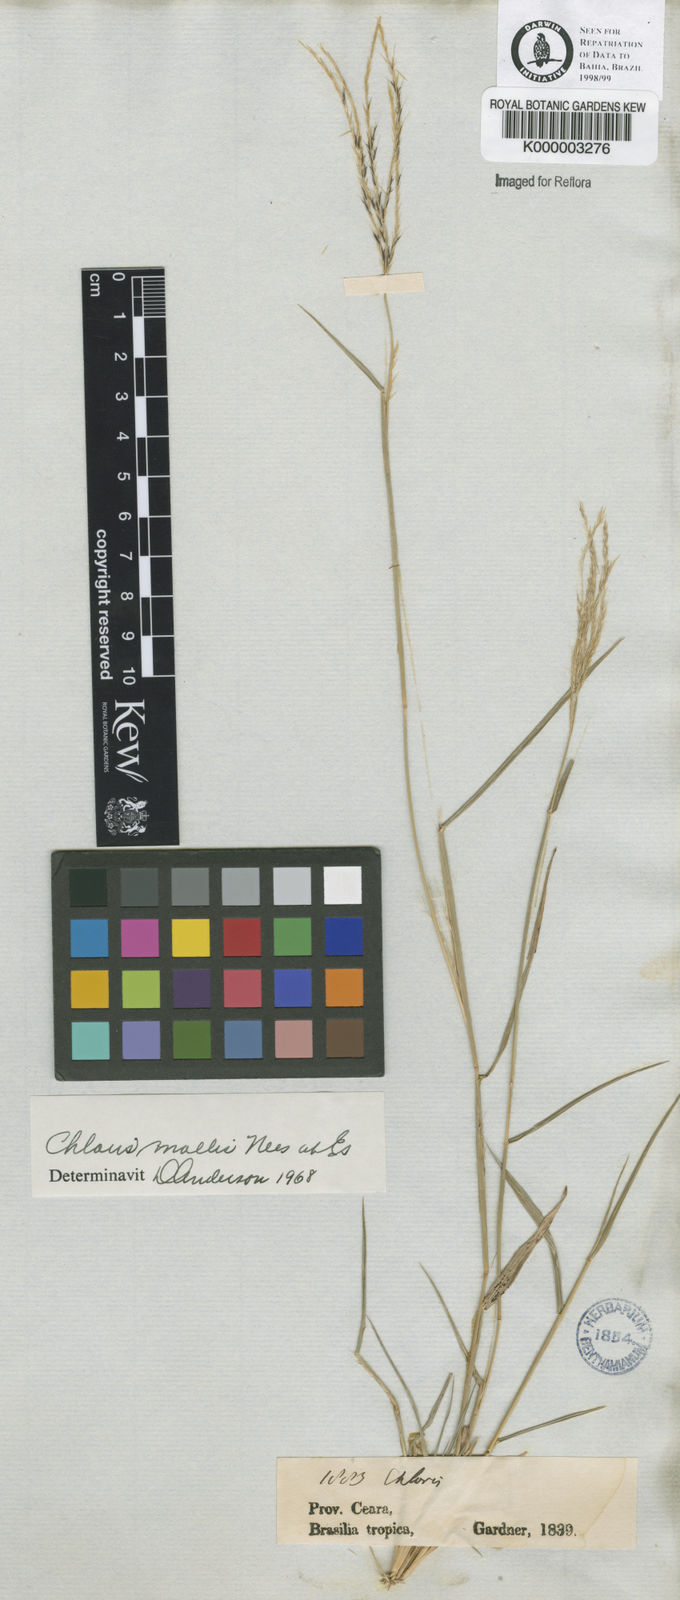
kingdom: Plantae
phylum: Tracheophyta
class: Liliopsida
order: Poales
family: Poaceae
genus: Leptochloa
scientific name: Leptochloa anisopoda
